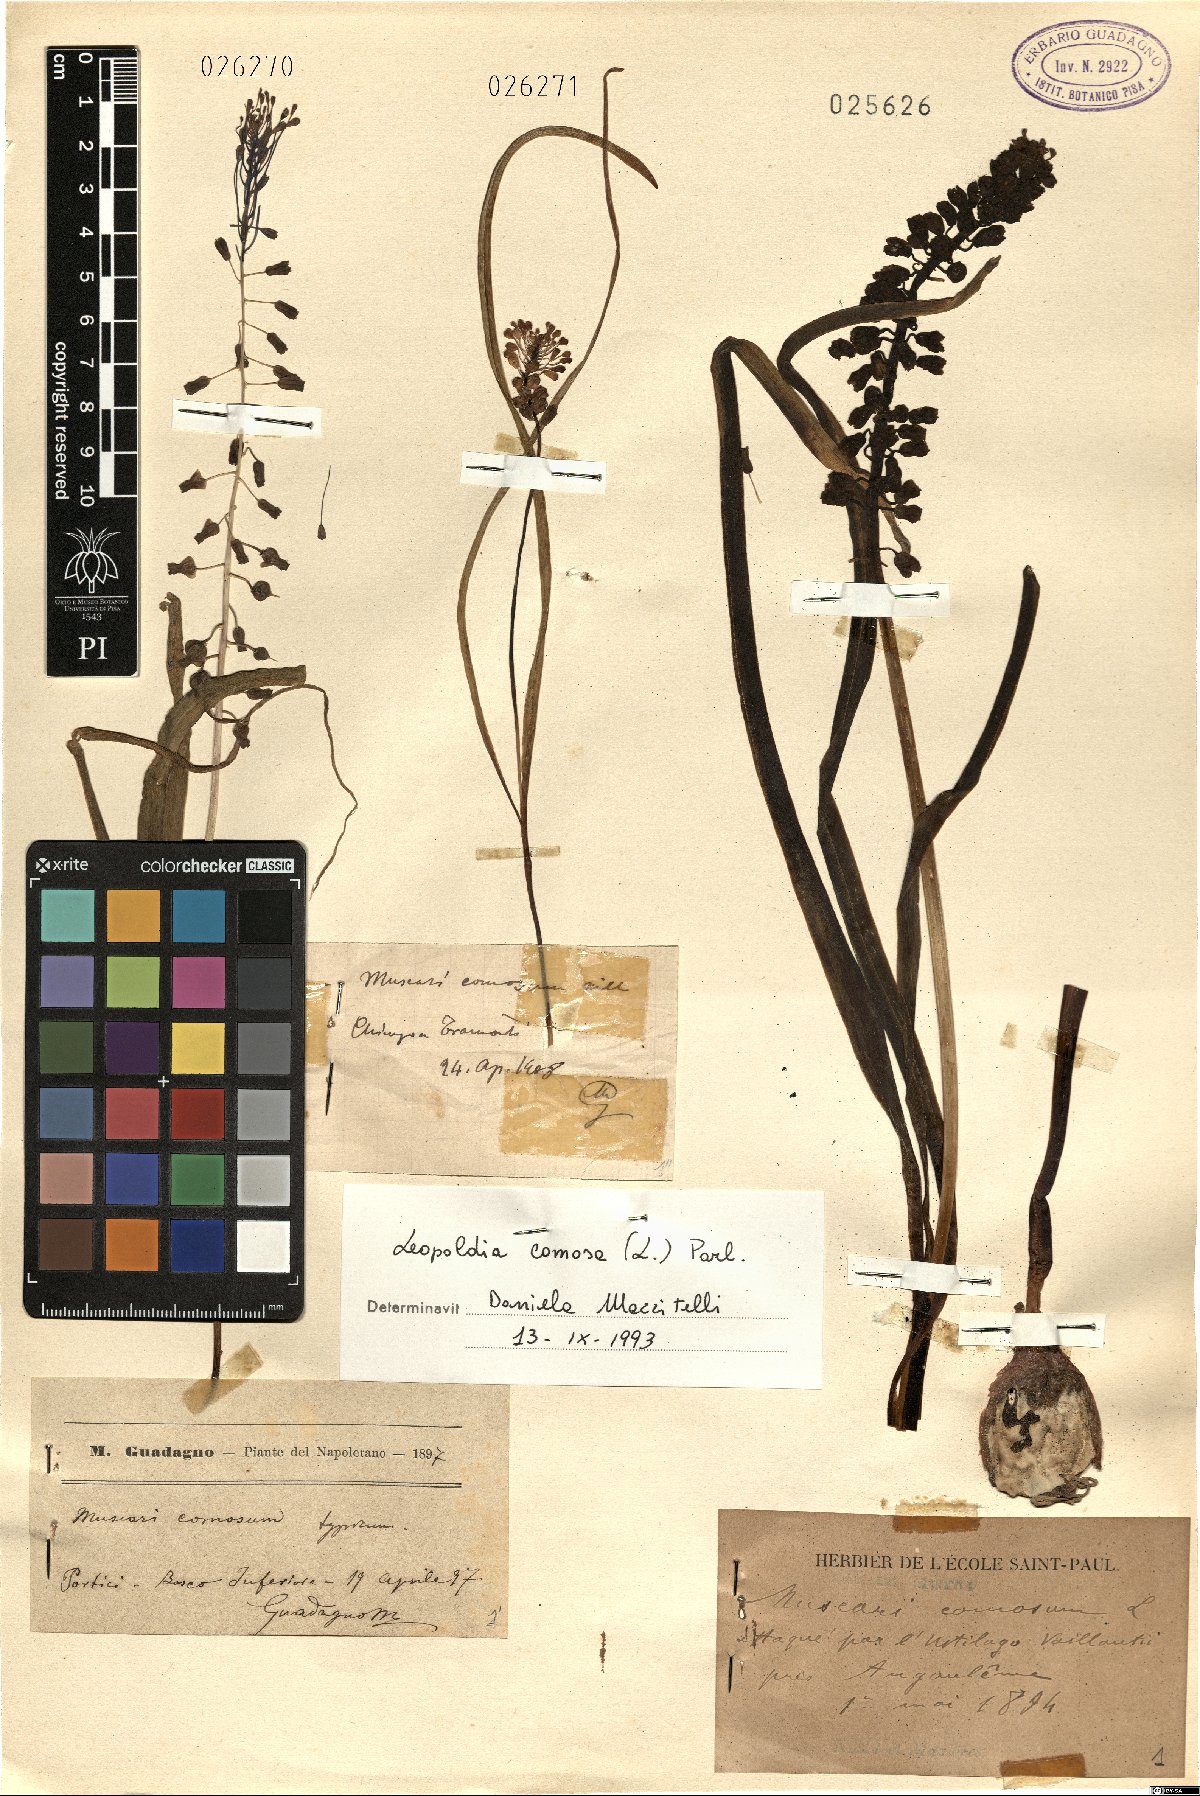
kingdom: Plantae
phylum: Tracheophyta
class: Liliopsida
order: Asparagales
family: Asparagaceae
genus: Muscari
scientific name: Muscari comosum
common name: Tassel hyacinth
